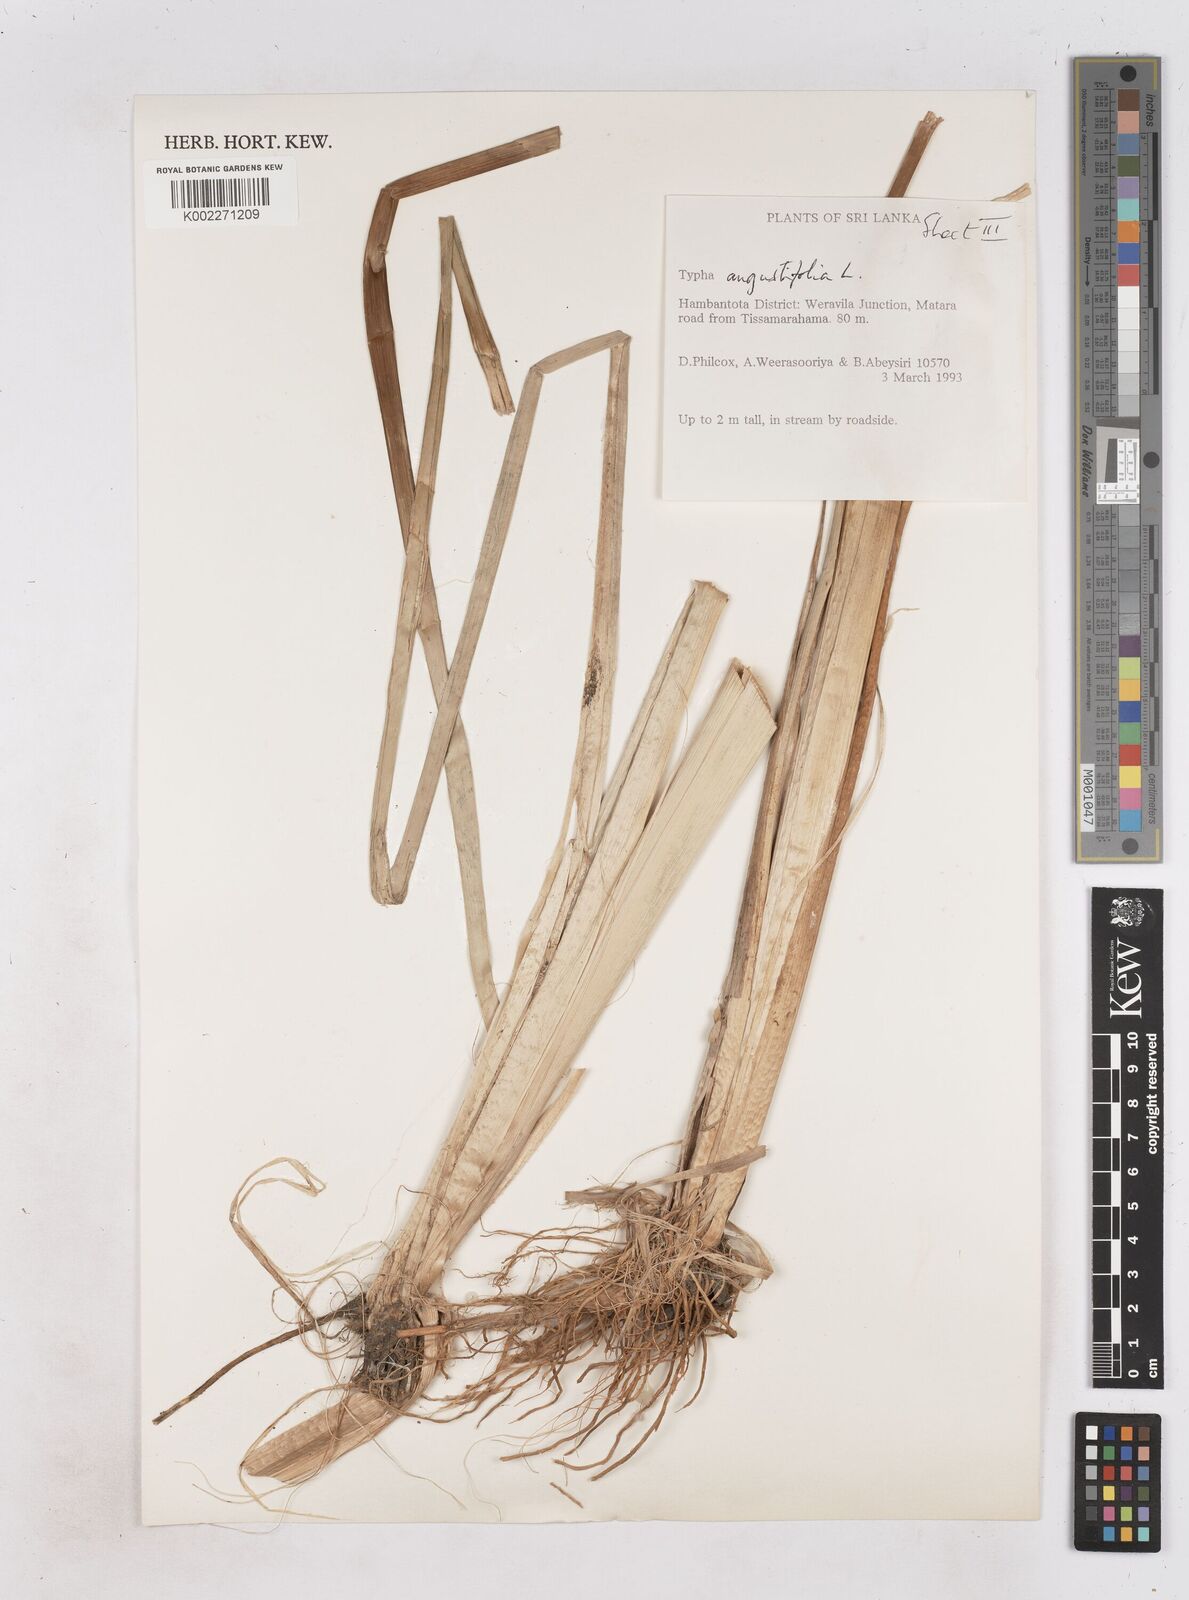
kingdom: Plantae
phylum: Tracheophyta
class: Liliopsida
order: Poales
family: Typhaceae
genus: Typha
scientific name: Typha domingensis
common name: Southern cattail
